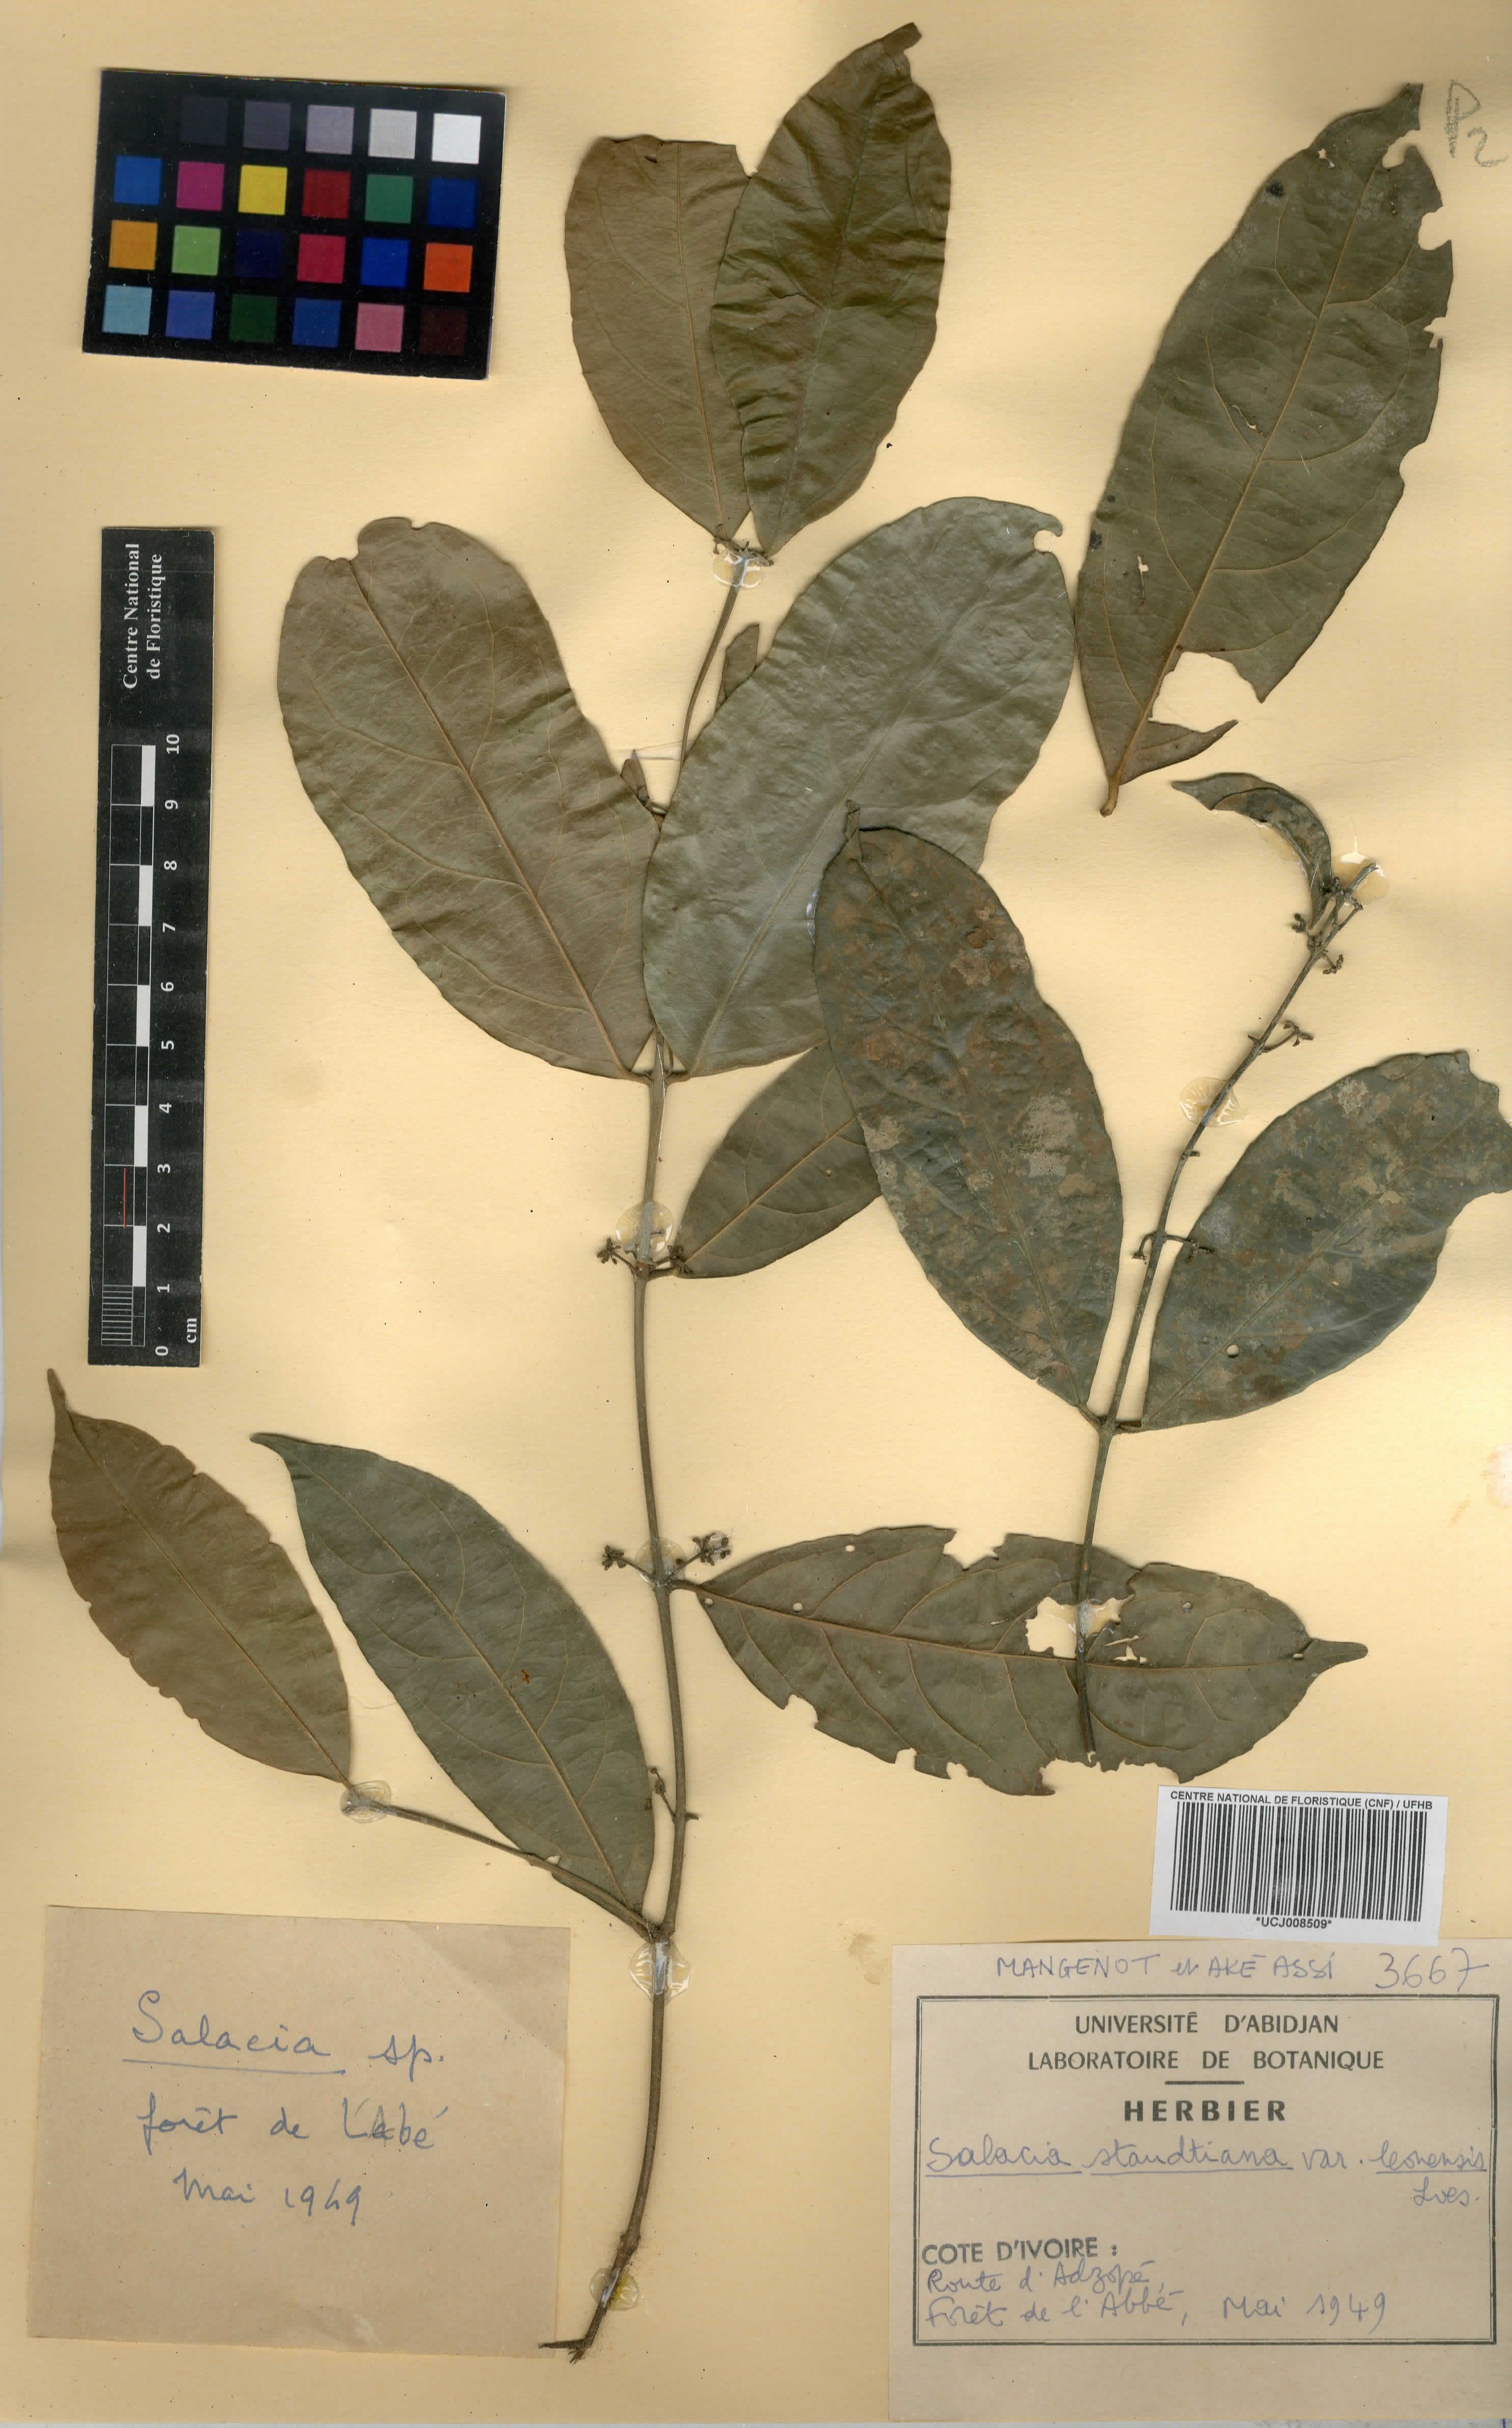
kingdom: Plantae
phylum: Tracheophyta
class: Magnoliopsida
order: Celastrales
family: Celastraceae
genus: Salacia
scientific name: Salacia caillei
